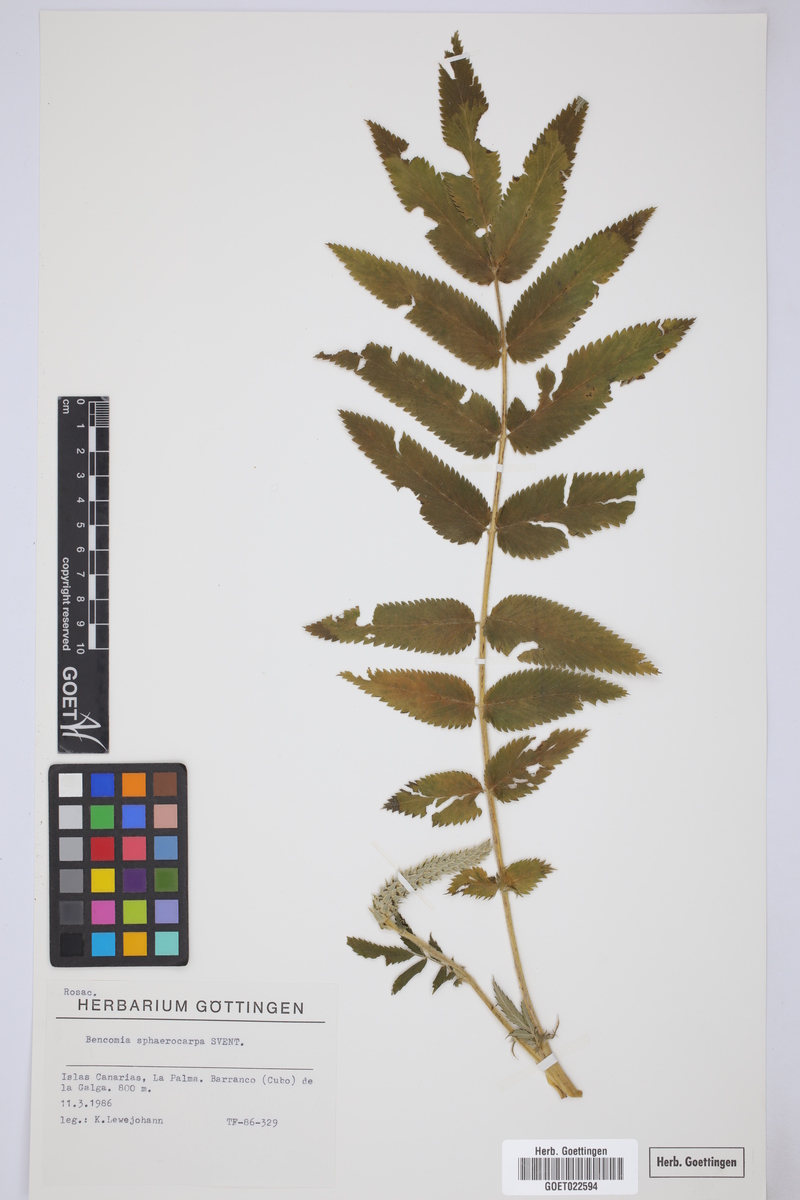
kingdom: Plantae
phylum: Tracheophyta
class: Magnoliopsida
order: Rosales
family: Rosaceae
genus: Bencomia
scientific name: Bencomia sphaerocarpa
